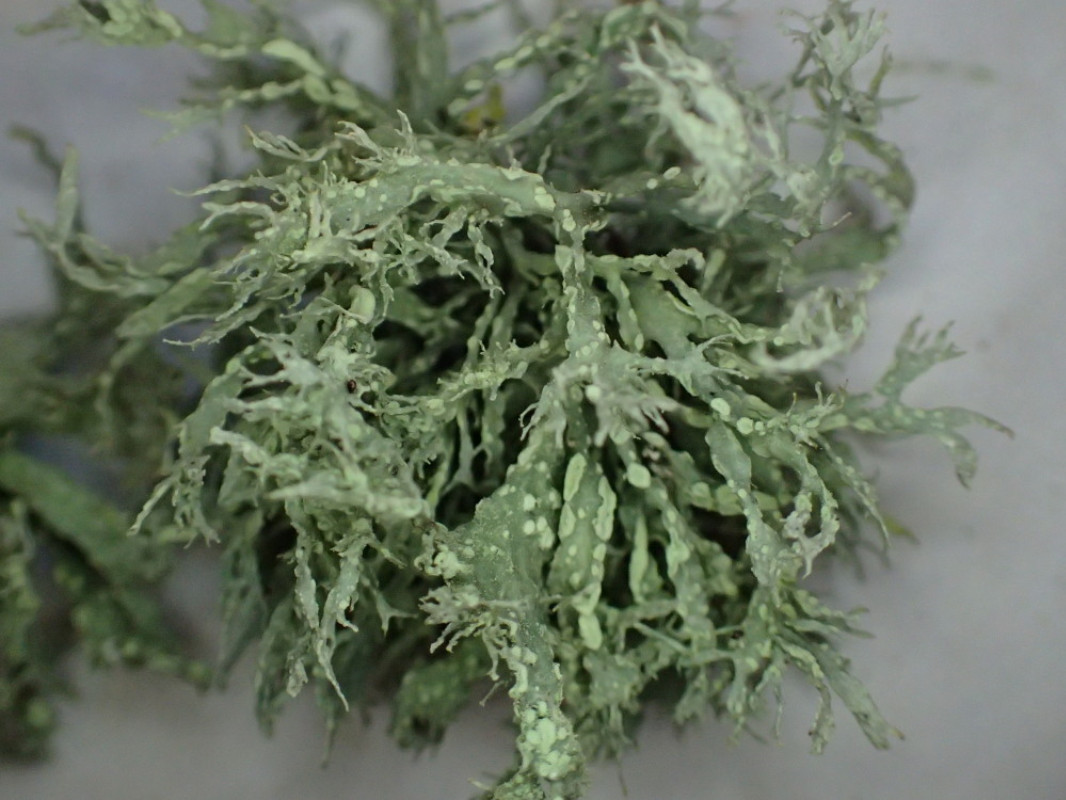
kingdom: Fungi
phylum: Ascomycota
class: Lecanoromycetes
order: Lecanorales
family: Ramalinaceae
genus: Ramalina
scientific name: Ramalina farinacea
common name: melet grenlav
